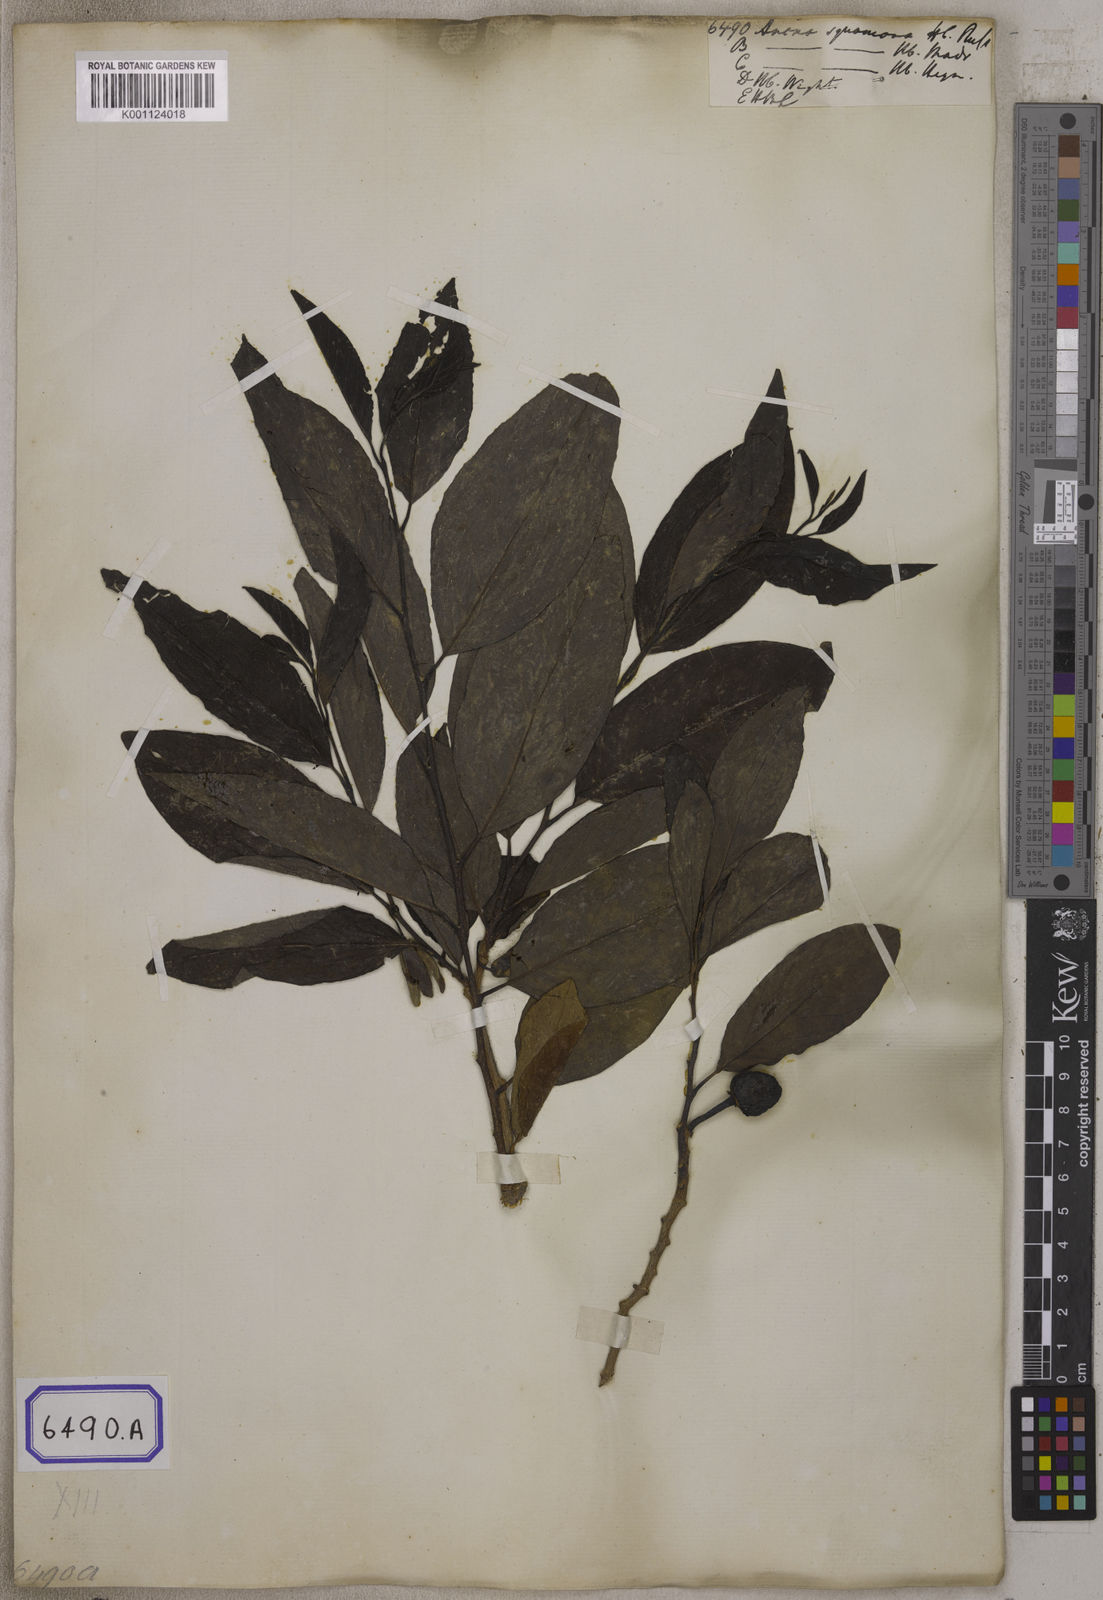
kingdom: Plantae
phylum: Tracheophyta
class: Magnoliopsida
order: Magnoliales
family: Annonaceae
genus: Annona
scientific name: Annona squamosa
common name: Custard-apple
